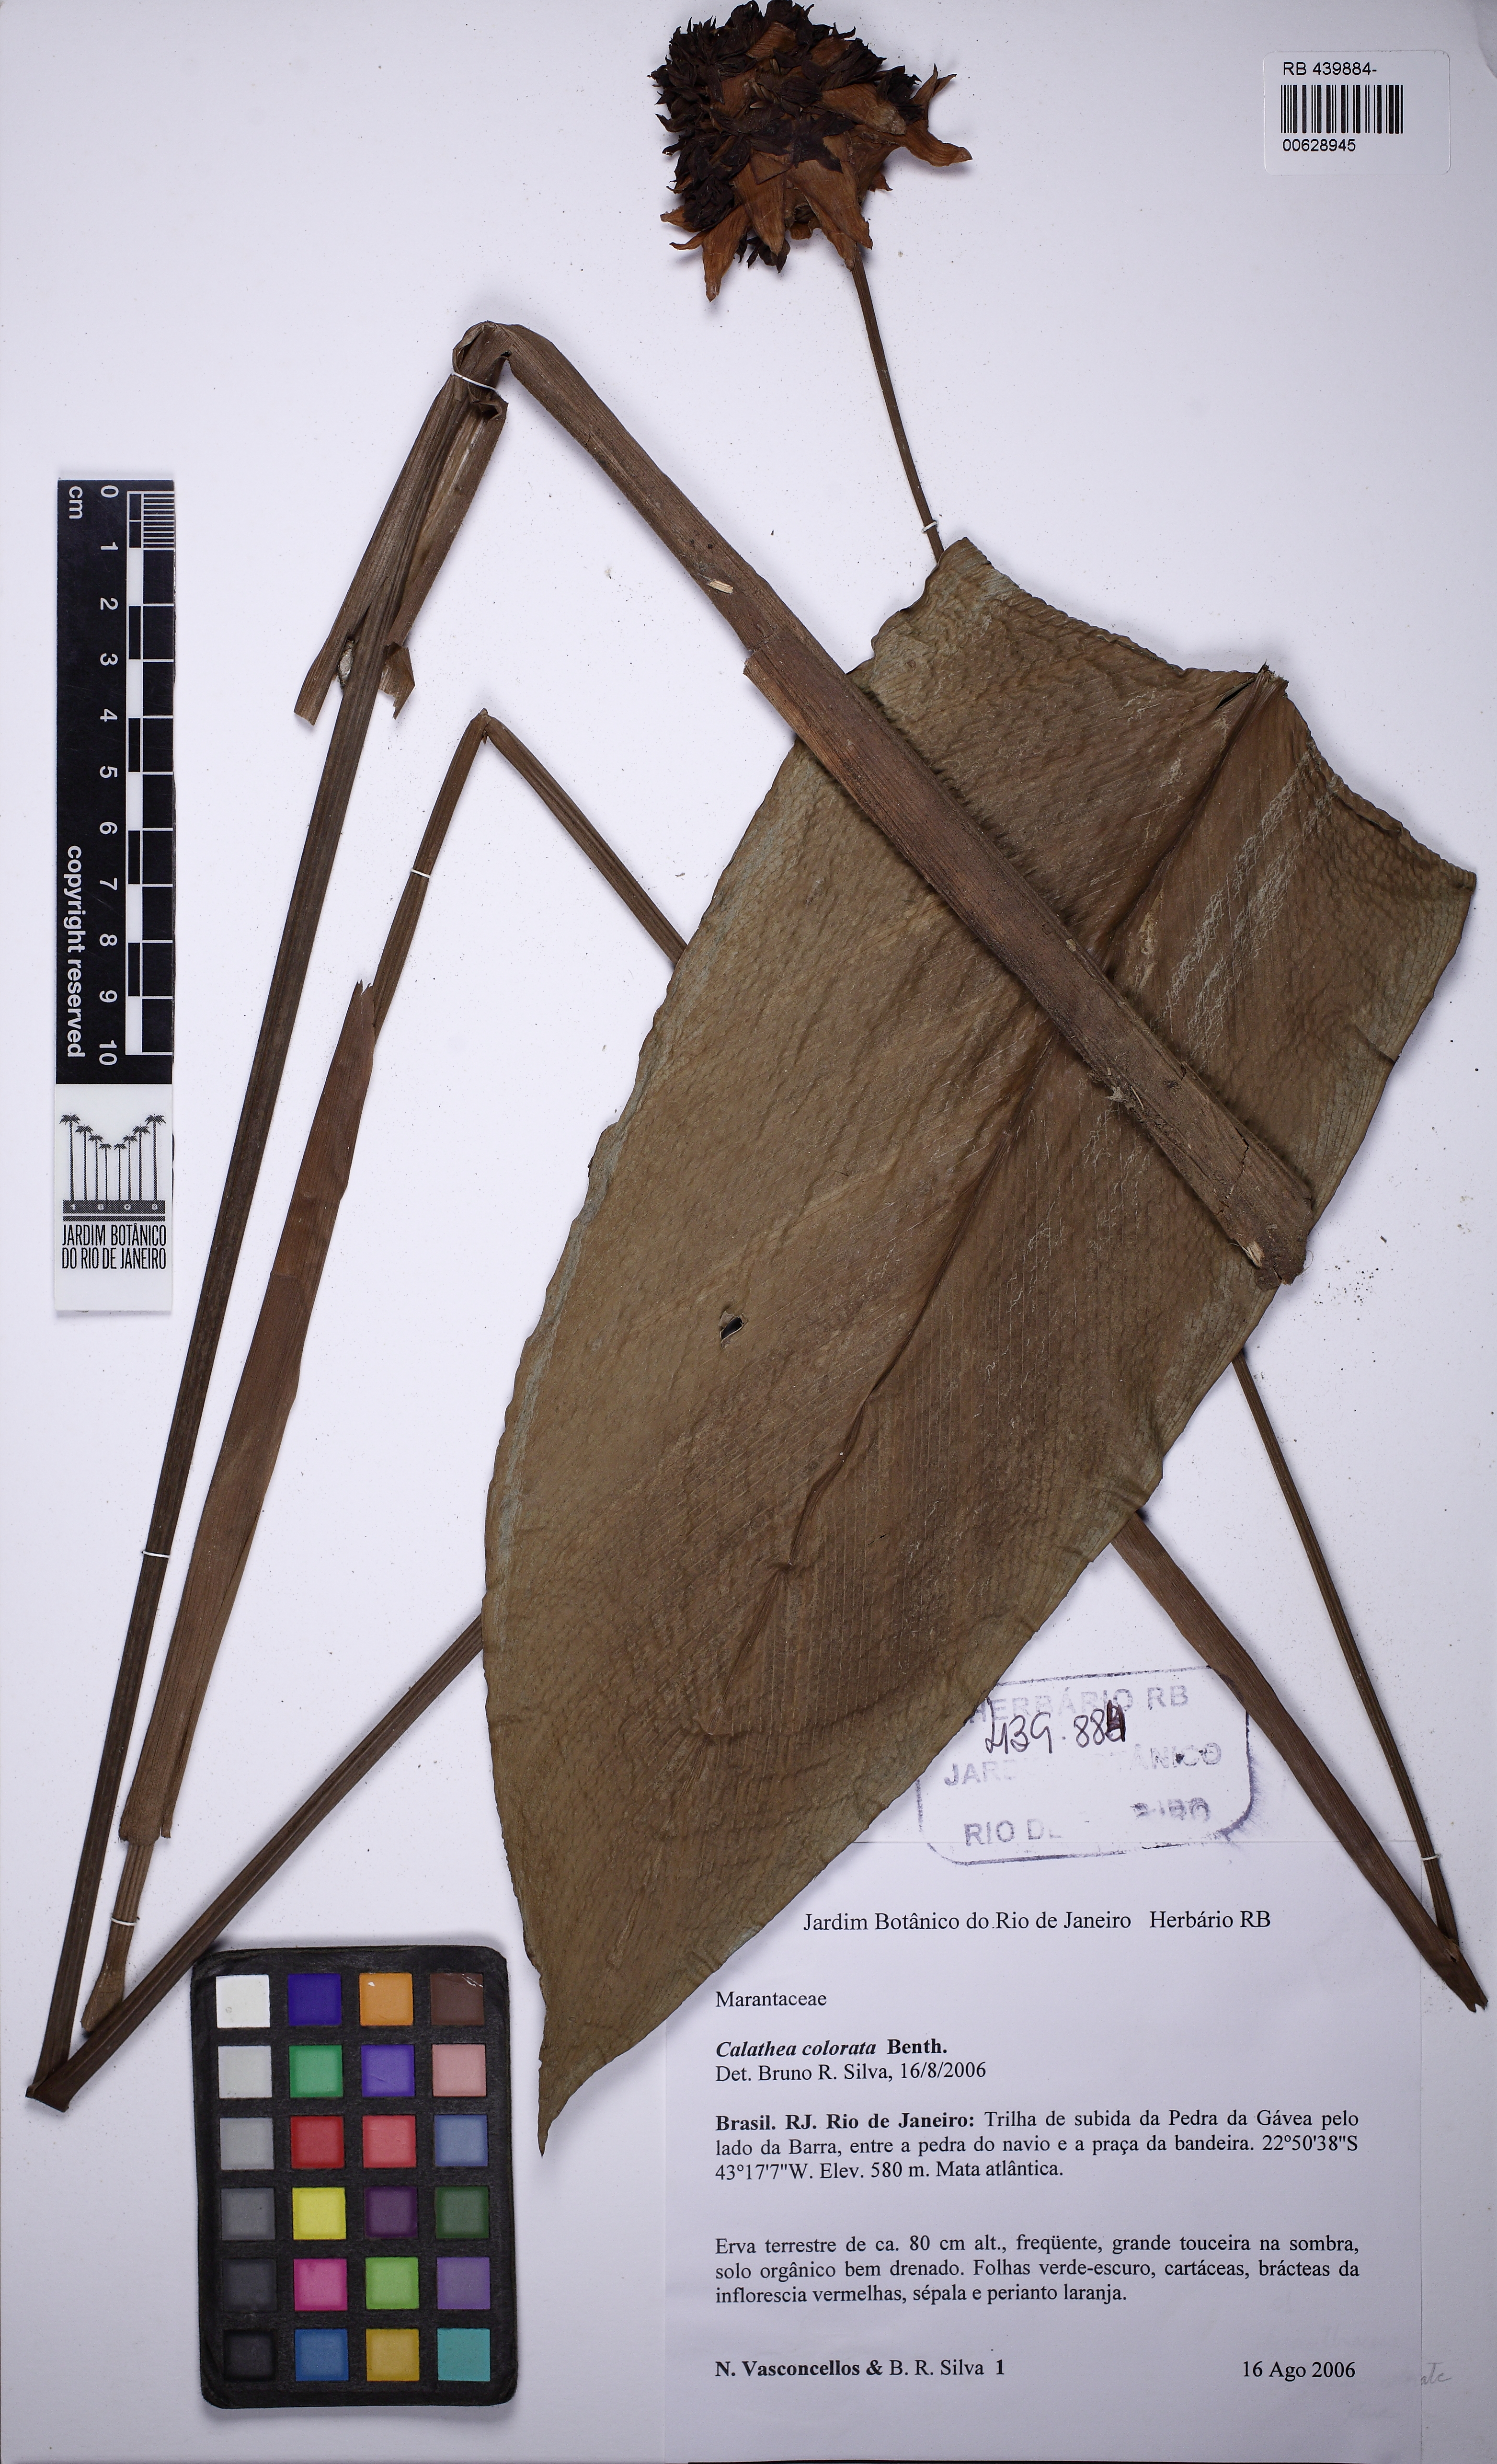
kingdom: Plantae
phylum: Tracheophyta
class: Liliopsida
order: Zingiberales
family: Marantaceae
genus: Goeppertia
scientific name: Goeppertia colorata
